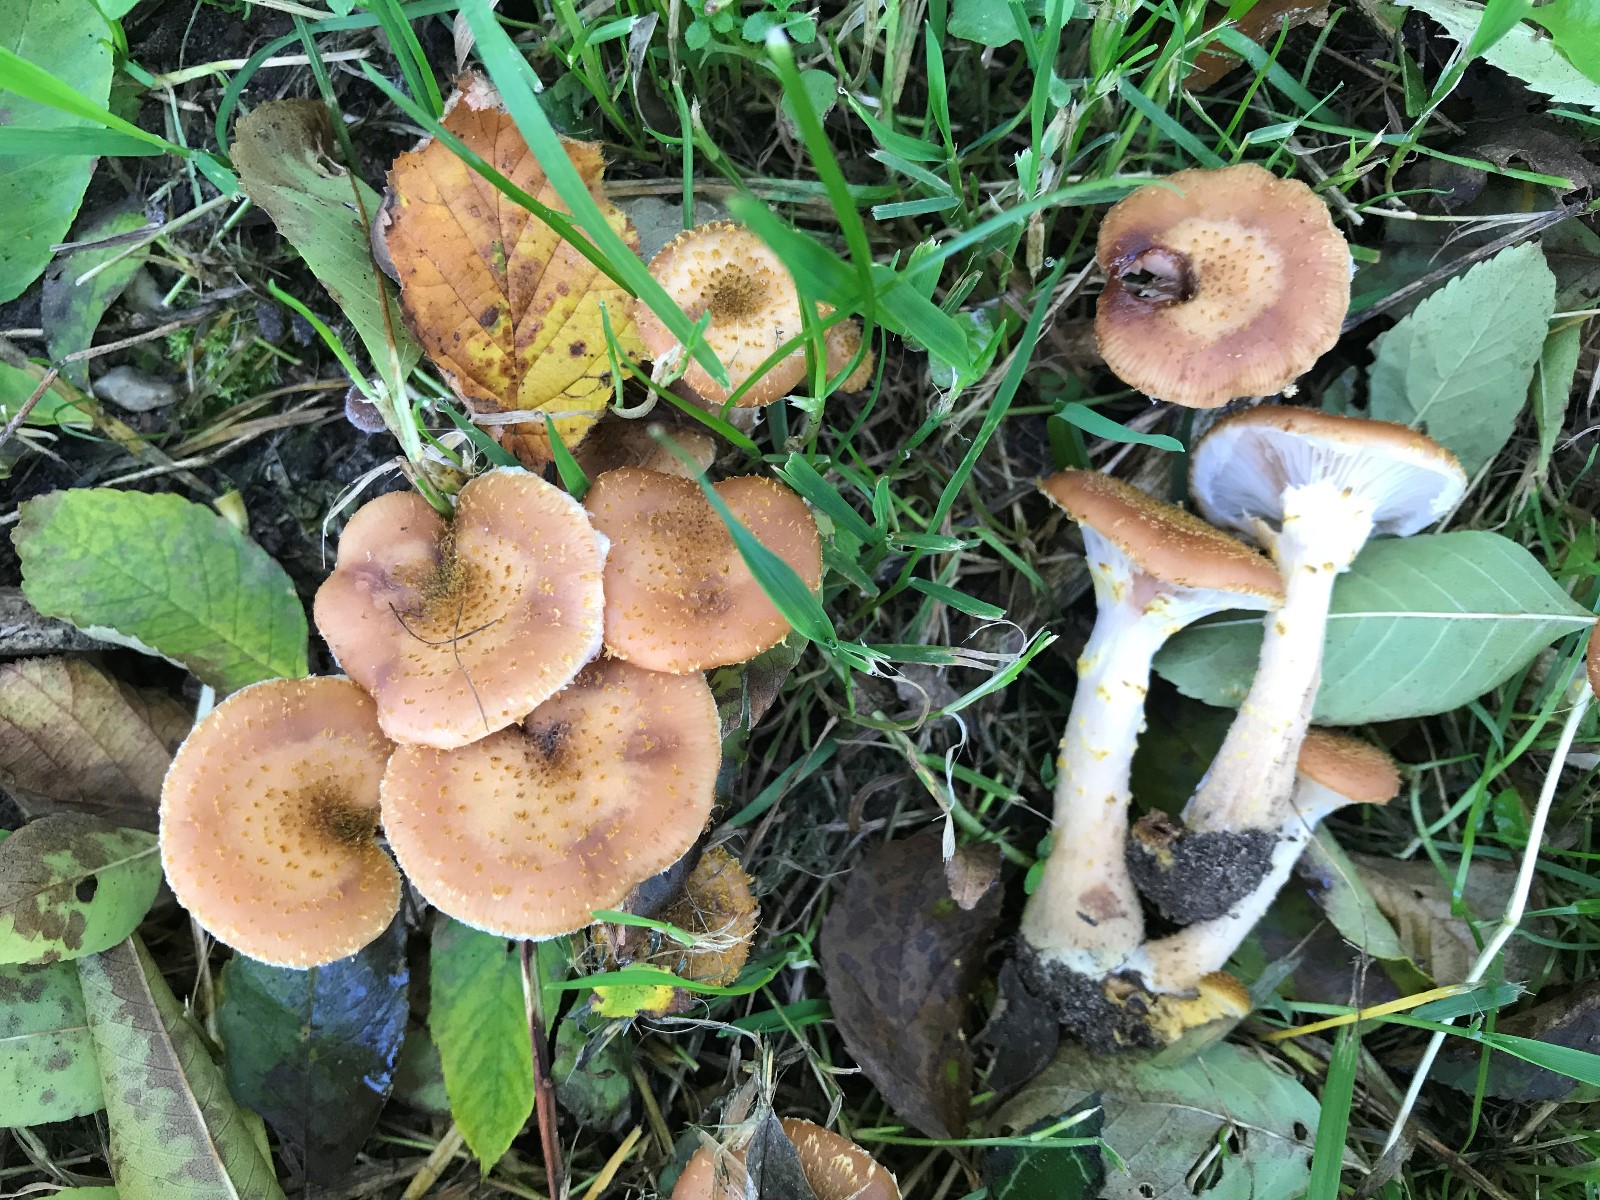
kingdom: Fungi
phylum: Basidiomycota
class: Agaricomycetes
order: Agaricales
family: Physalacriaceae
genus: Armillaria
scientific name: Armillaria lutea
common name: køllestokket honningsvamp
